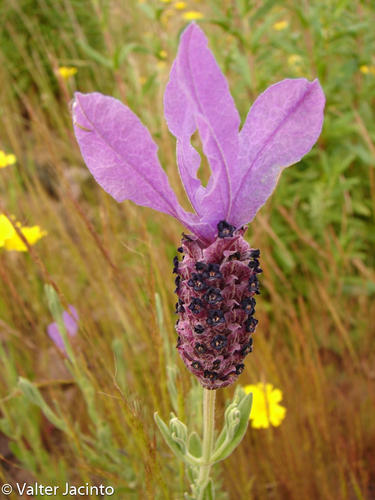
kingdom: Plantae
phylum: Tracheophyta
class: Magnoliopsida
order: Lamiales
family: Lamiaceae
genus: Lavandula
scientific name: Lavandula stoechas
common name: French lavender
